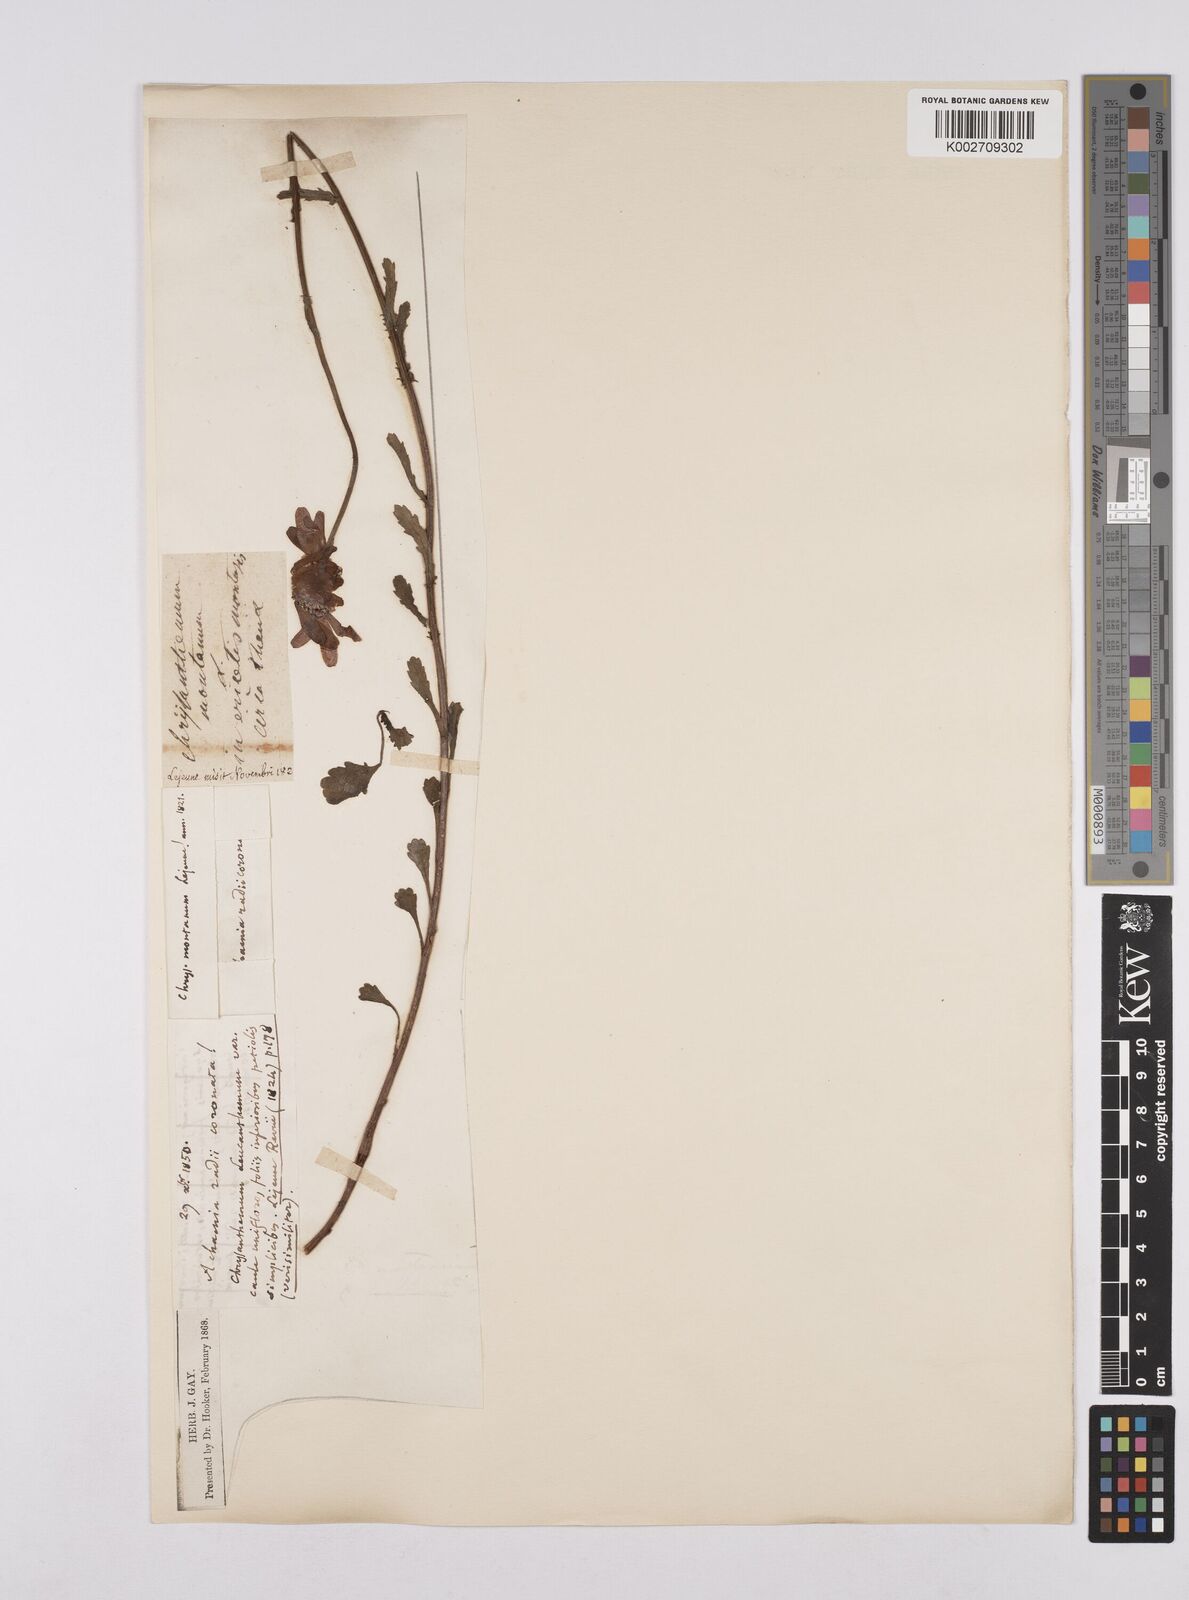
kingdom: Plantae
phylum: Tracheophyta
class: Magnoliopsida
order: Asterales
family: Asteraceae
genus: Leucanthemum
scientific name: Leucanthemum chloroticum
